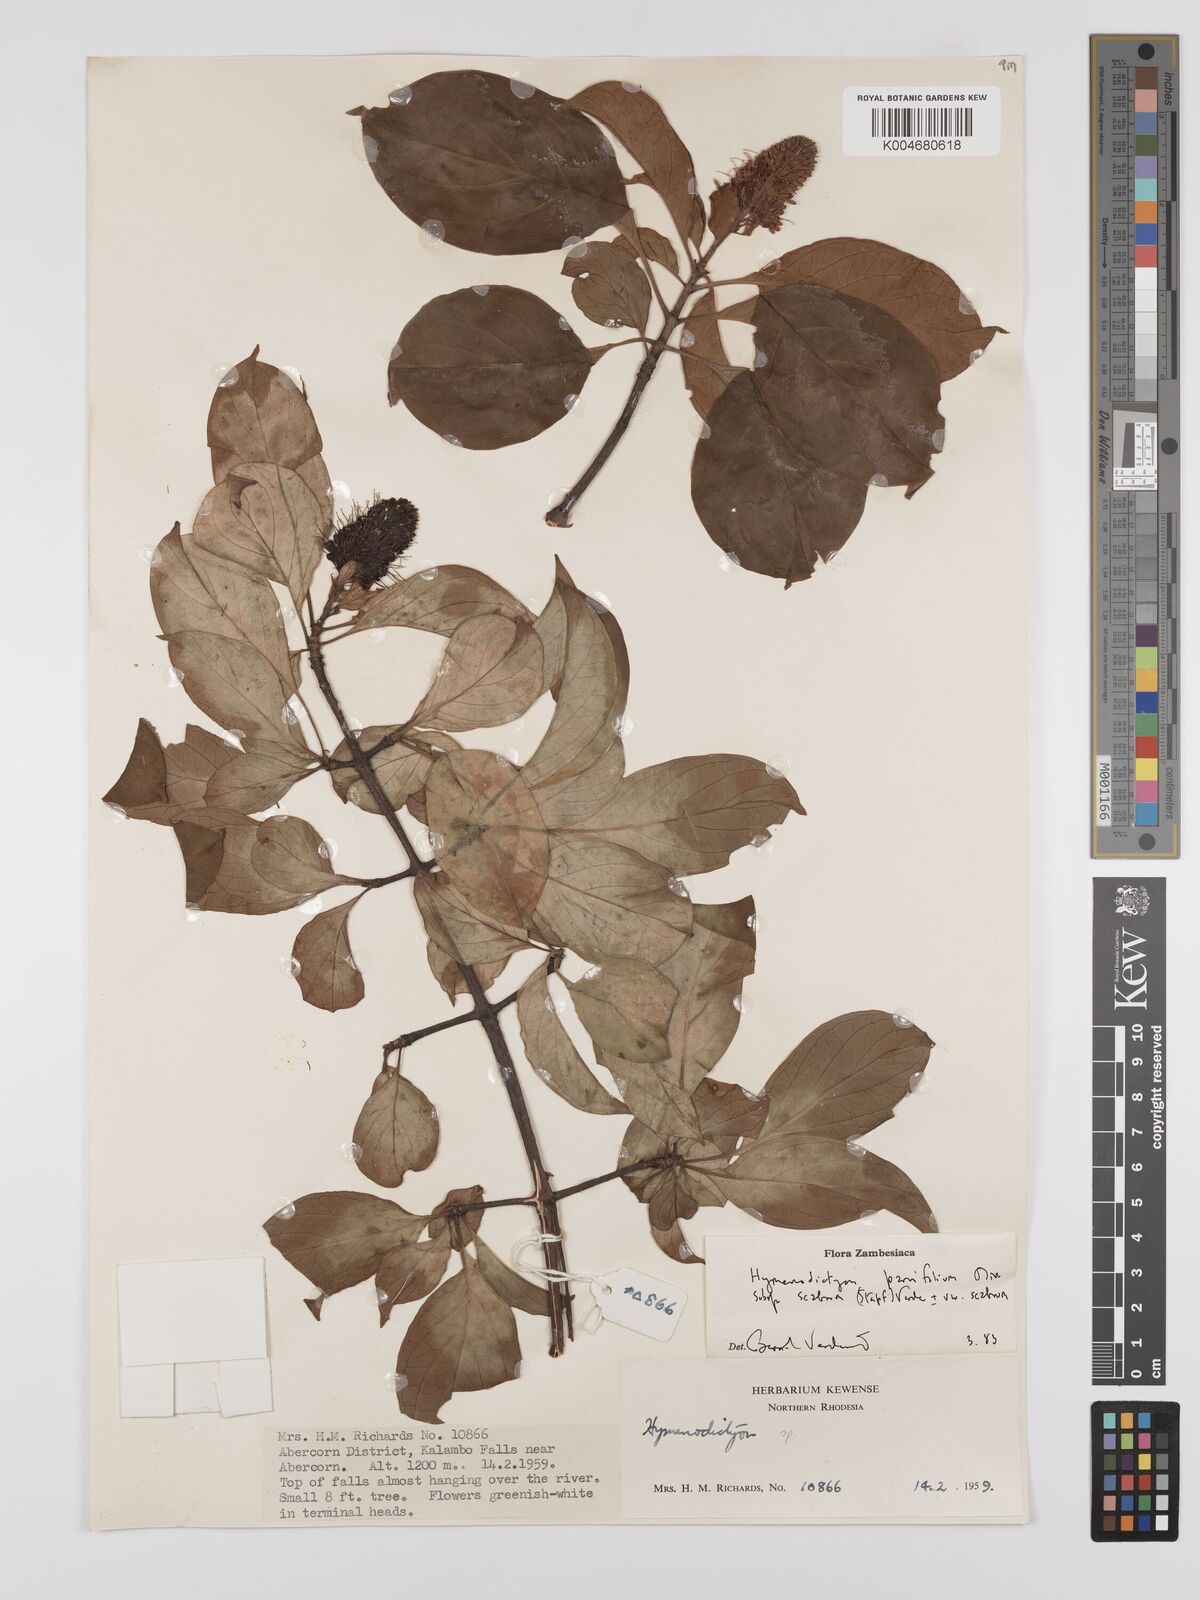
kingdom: Plantae
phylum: Tracheophyta
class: Magnoliopsida
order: Gentianales
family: Rubiaceae
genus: Hymenodictyon
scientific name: Hymenodictyon scabrum
